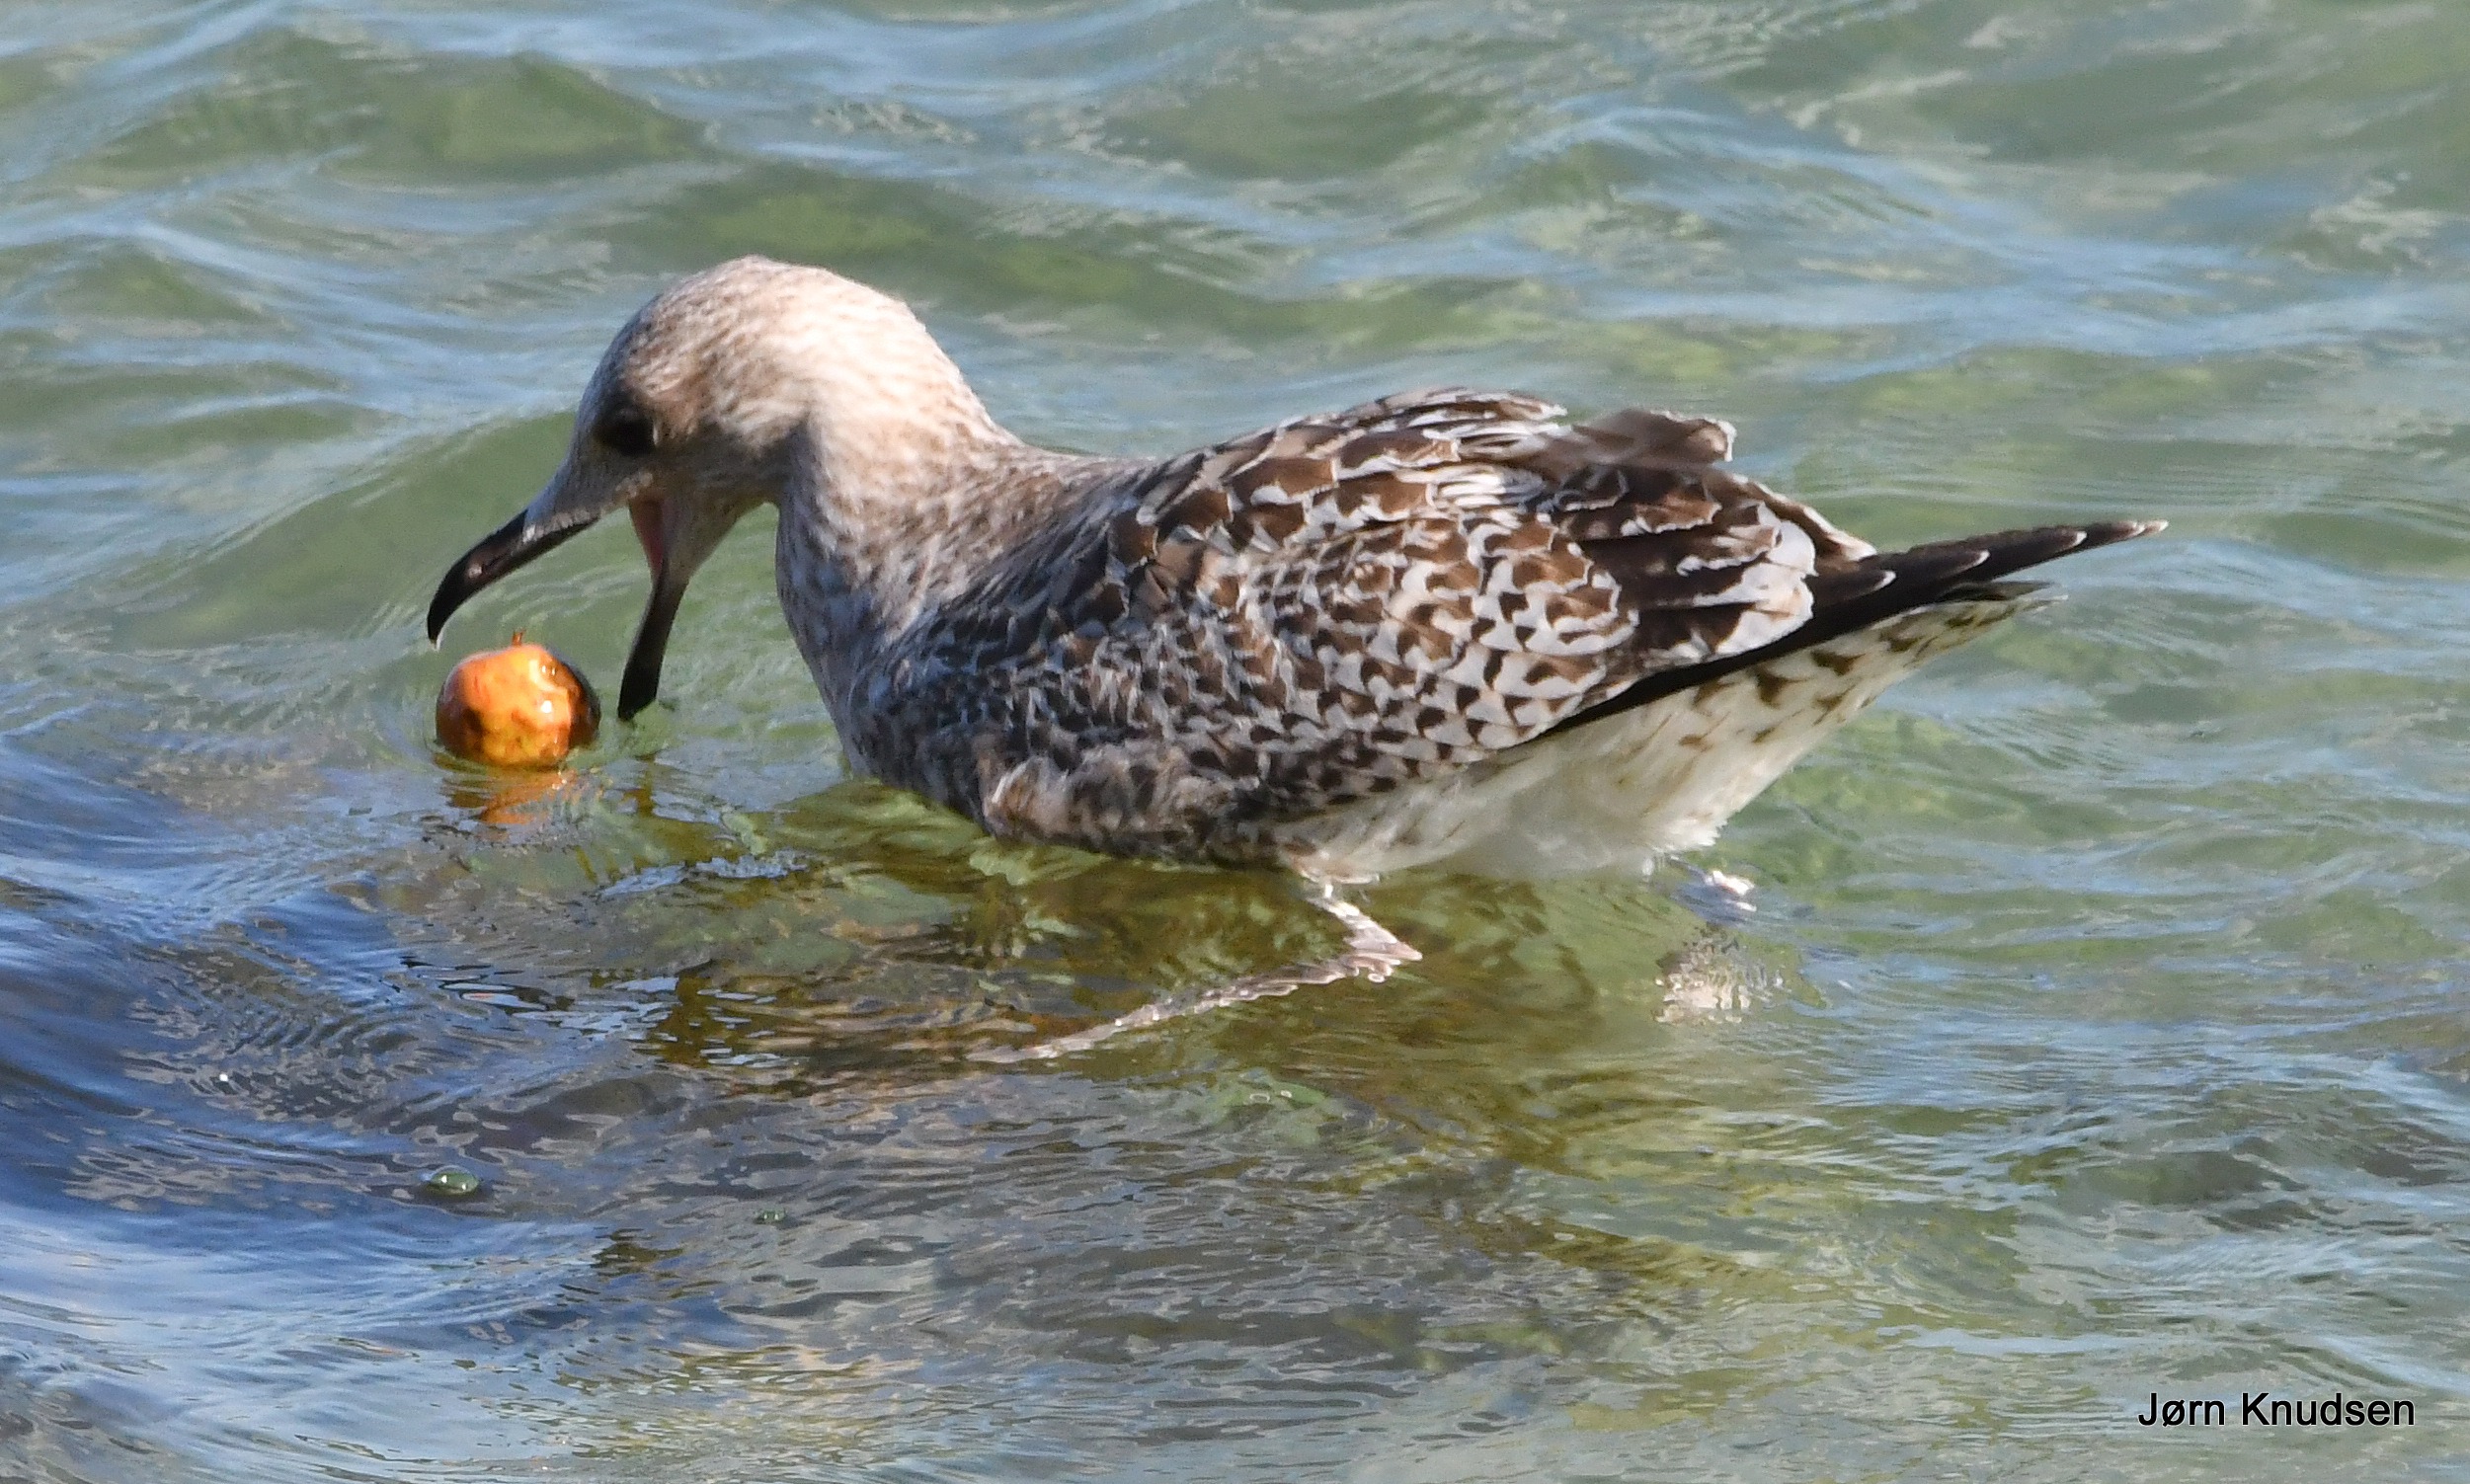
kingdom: Animalia
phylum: Chordata
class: Aves
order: Charadriiformes
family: Laridae
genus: Larus
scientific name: Larus argentatus
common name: Sølvmåge
